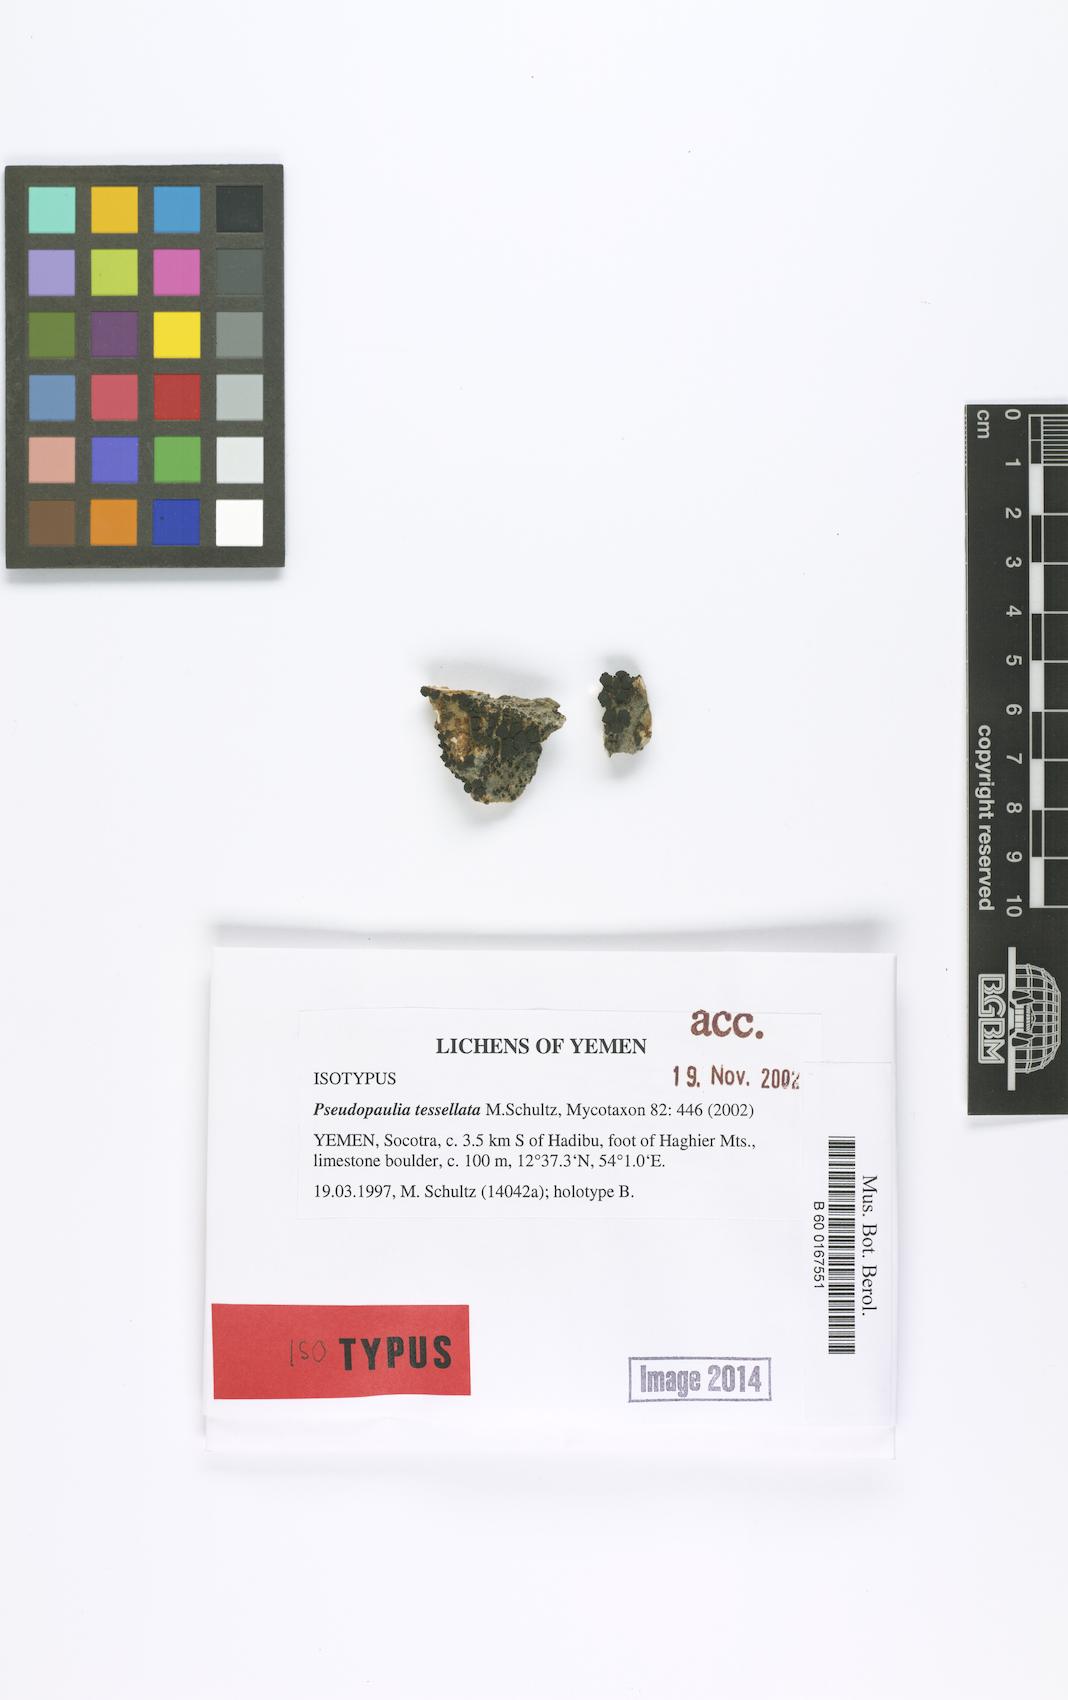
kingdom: Fungi
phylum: Ascomycota
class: Lichinomycetes
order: Lichinales
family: Lichinaceae
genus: Pseudopaulia
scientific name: Pseudopaulia tessellata
